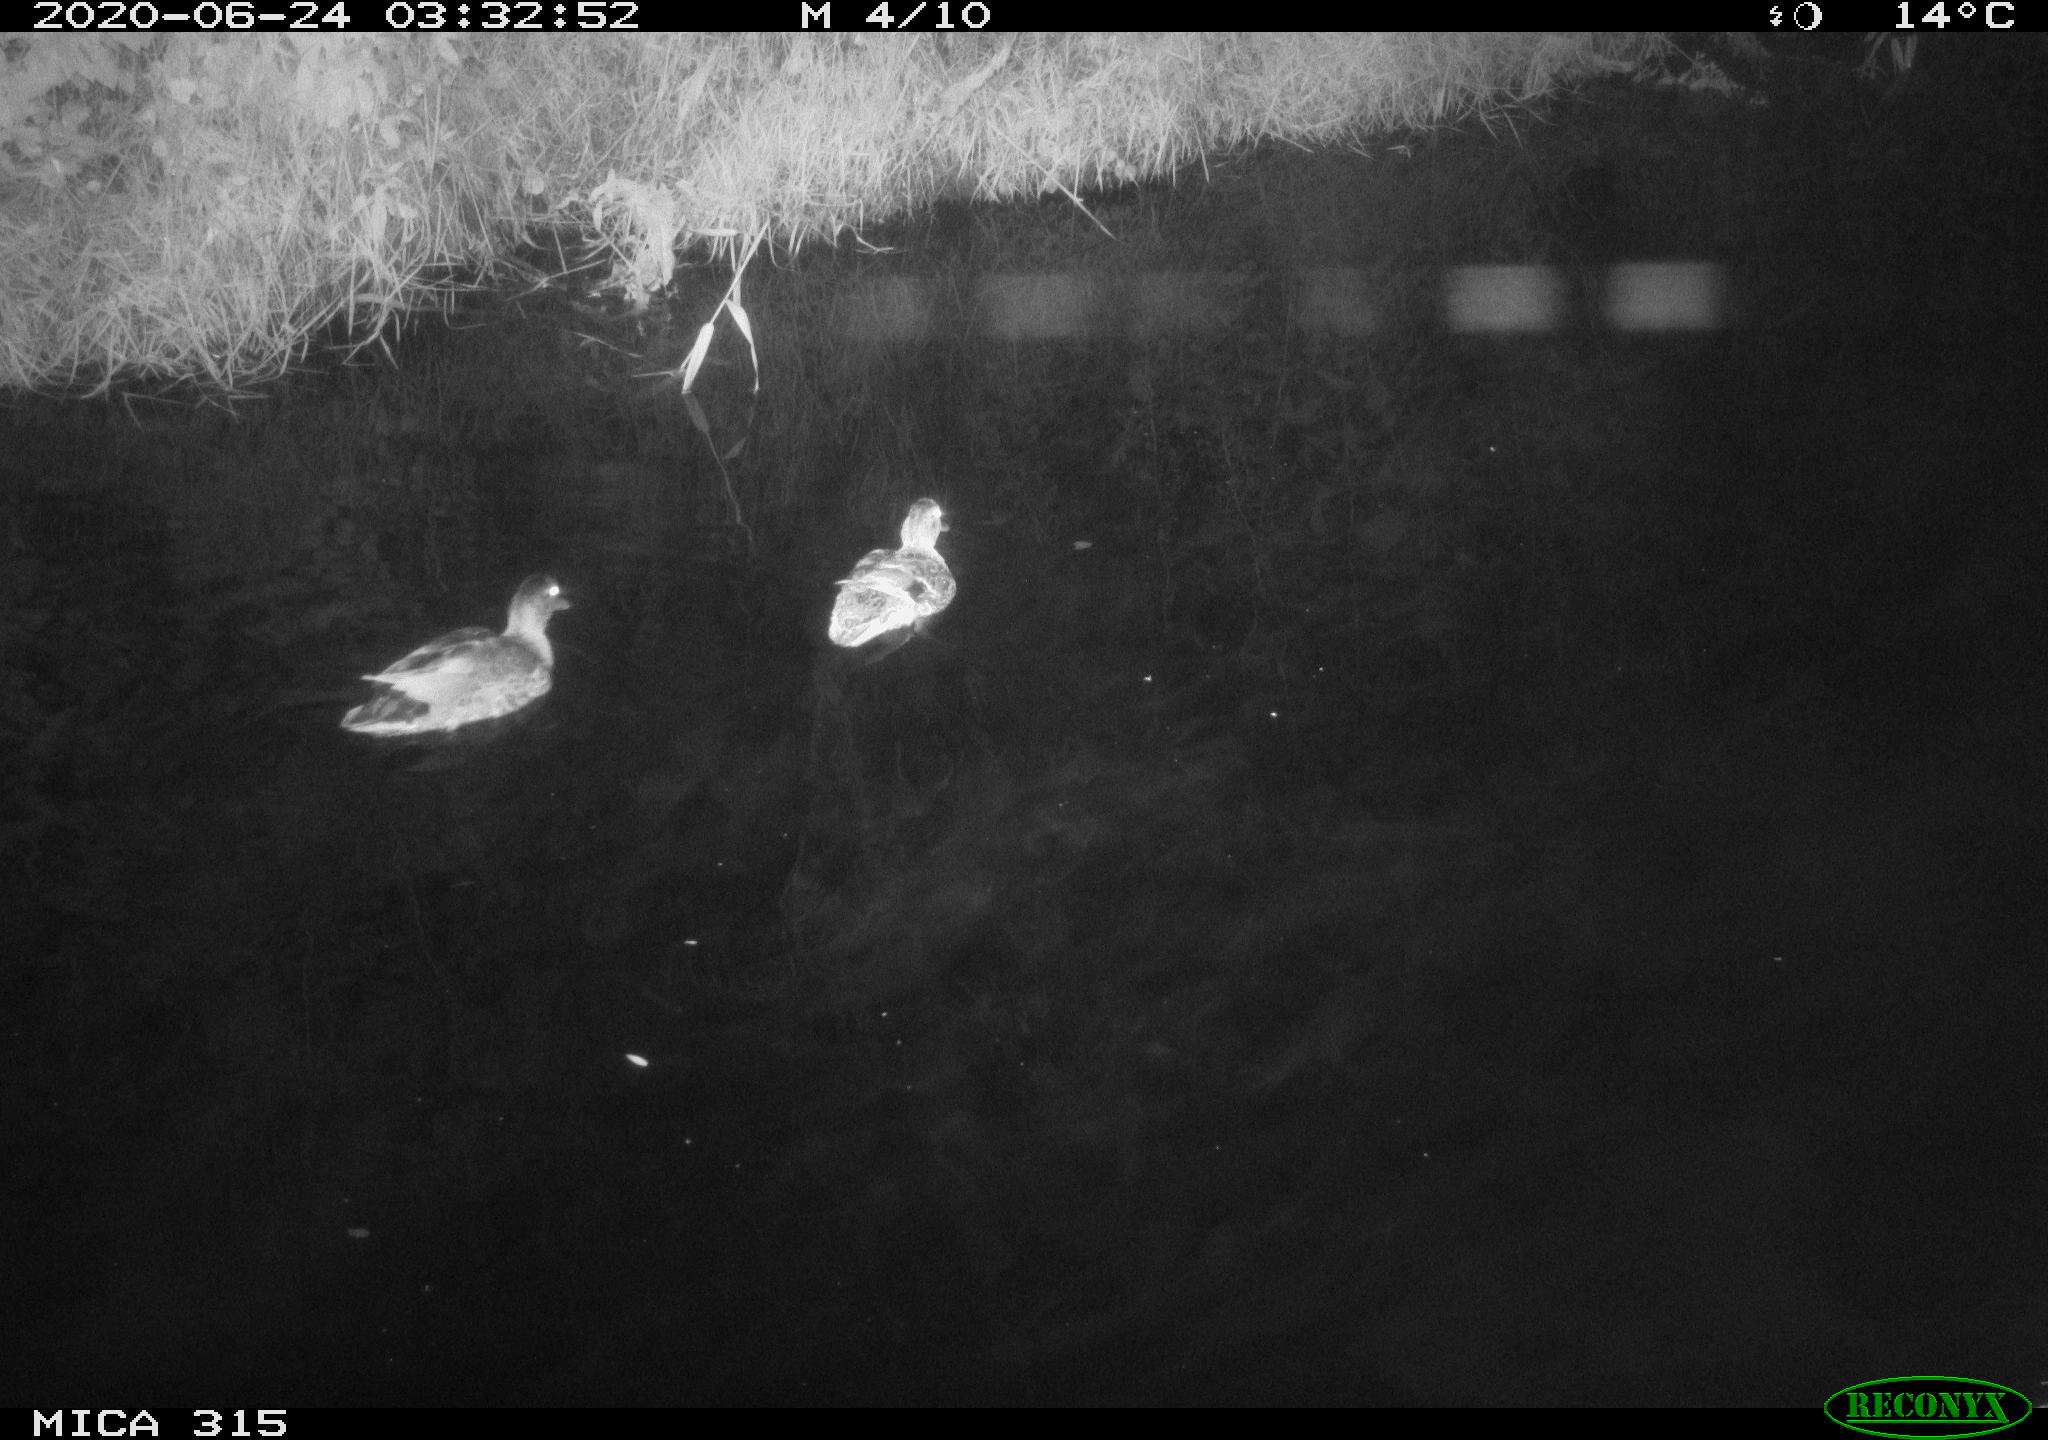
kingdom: Animalia
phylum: Chordata
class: Aves
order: Anseriformes
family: Anatidae
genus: Anas
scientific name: Anas platyrhynchos
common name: Mallard
